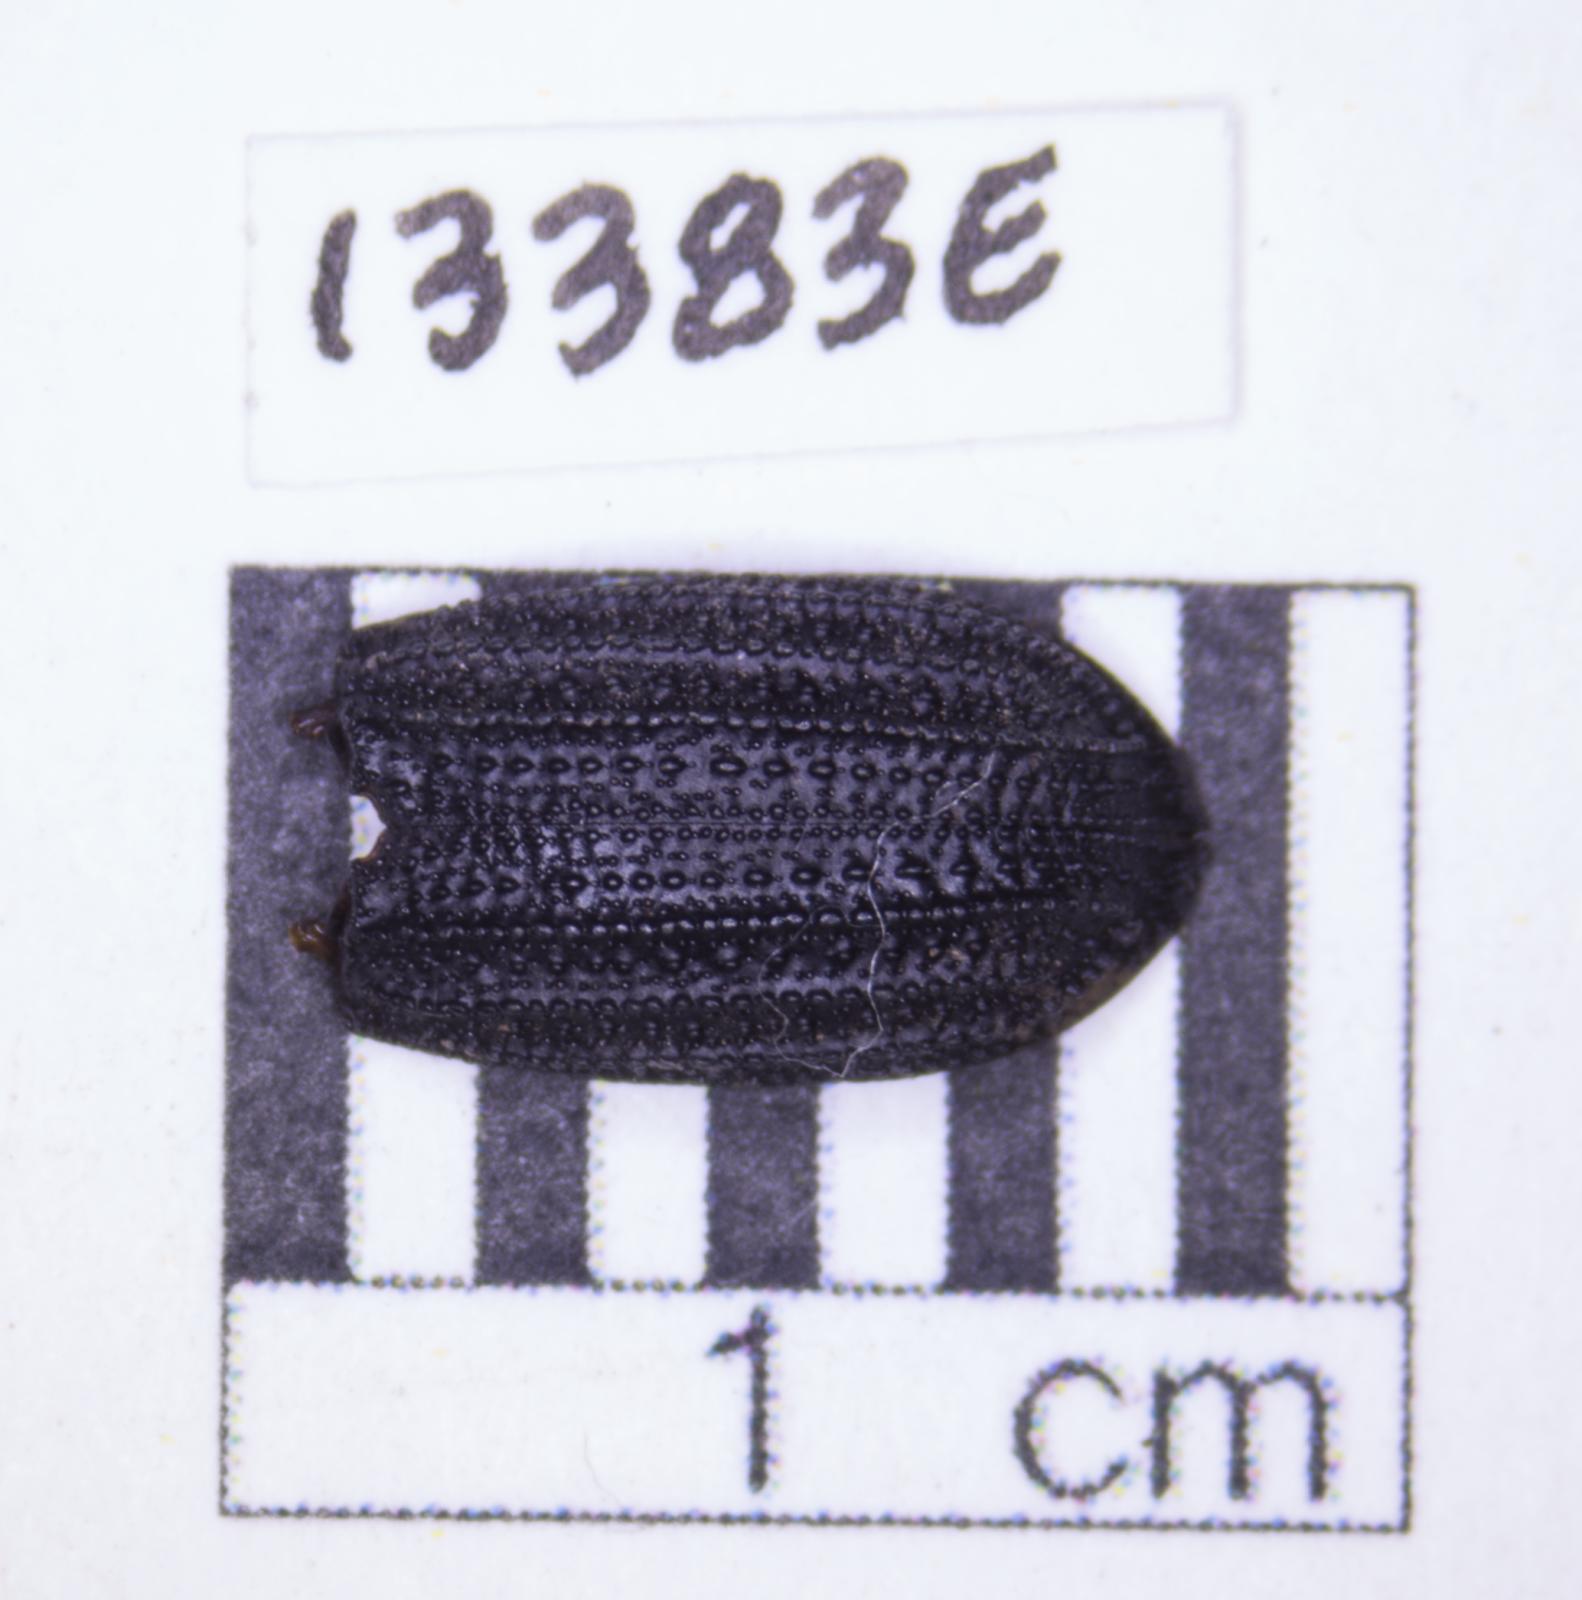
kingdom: Animalia
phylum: Arthropoda
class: Insecta
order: Coleoptera
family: Tenebrionidae
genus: Nyctoporis
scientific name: Nyctoporis carinata
